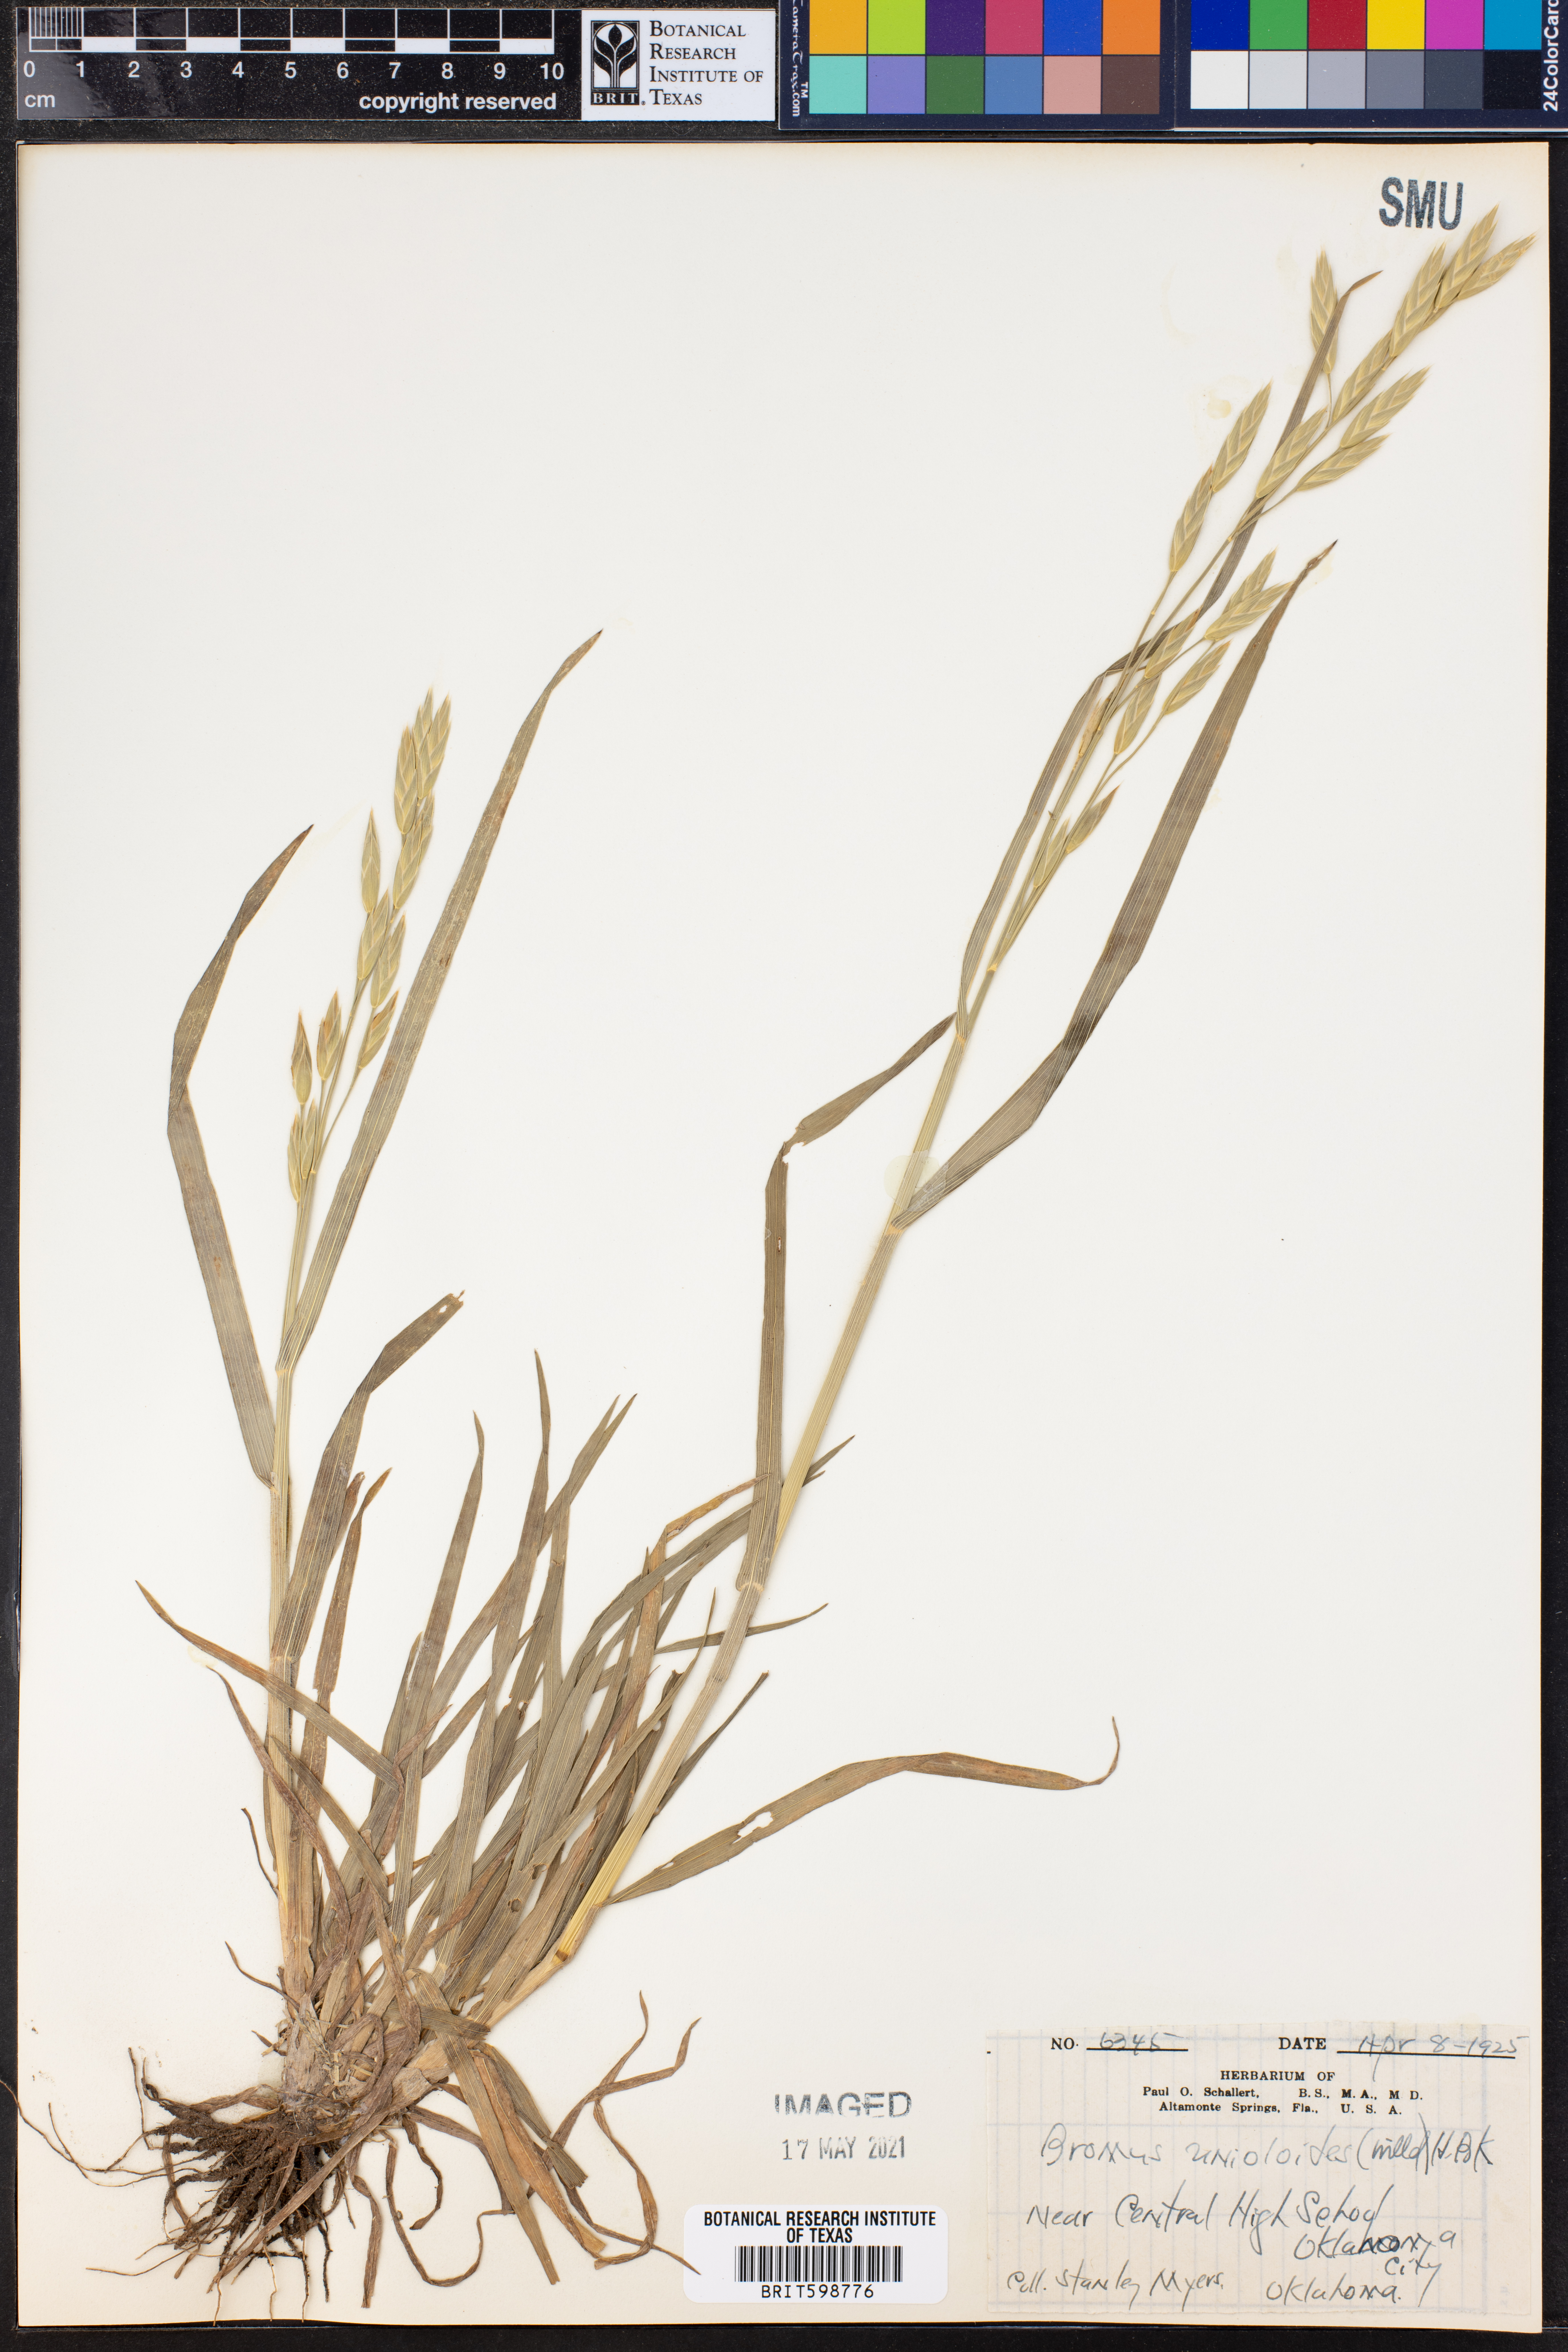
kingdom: Plantae
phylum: Tracheophyta
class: Liliopsida
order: Poales
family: Poaceae
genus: Bromus
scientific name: Bromus catharticus
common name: Rescuegrass
